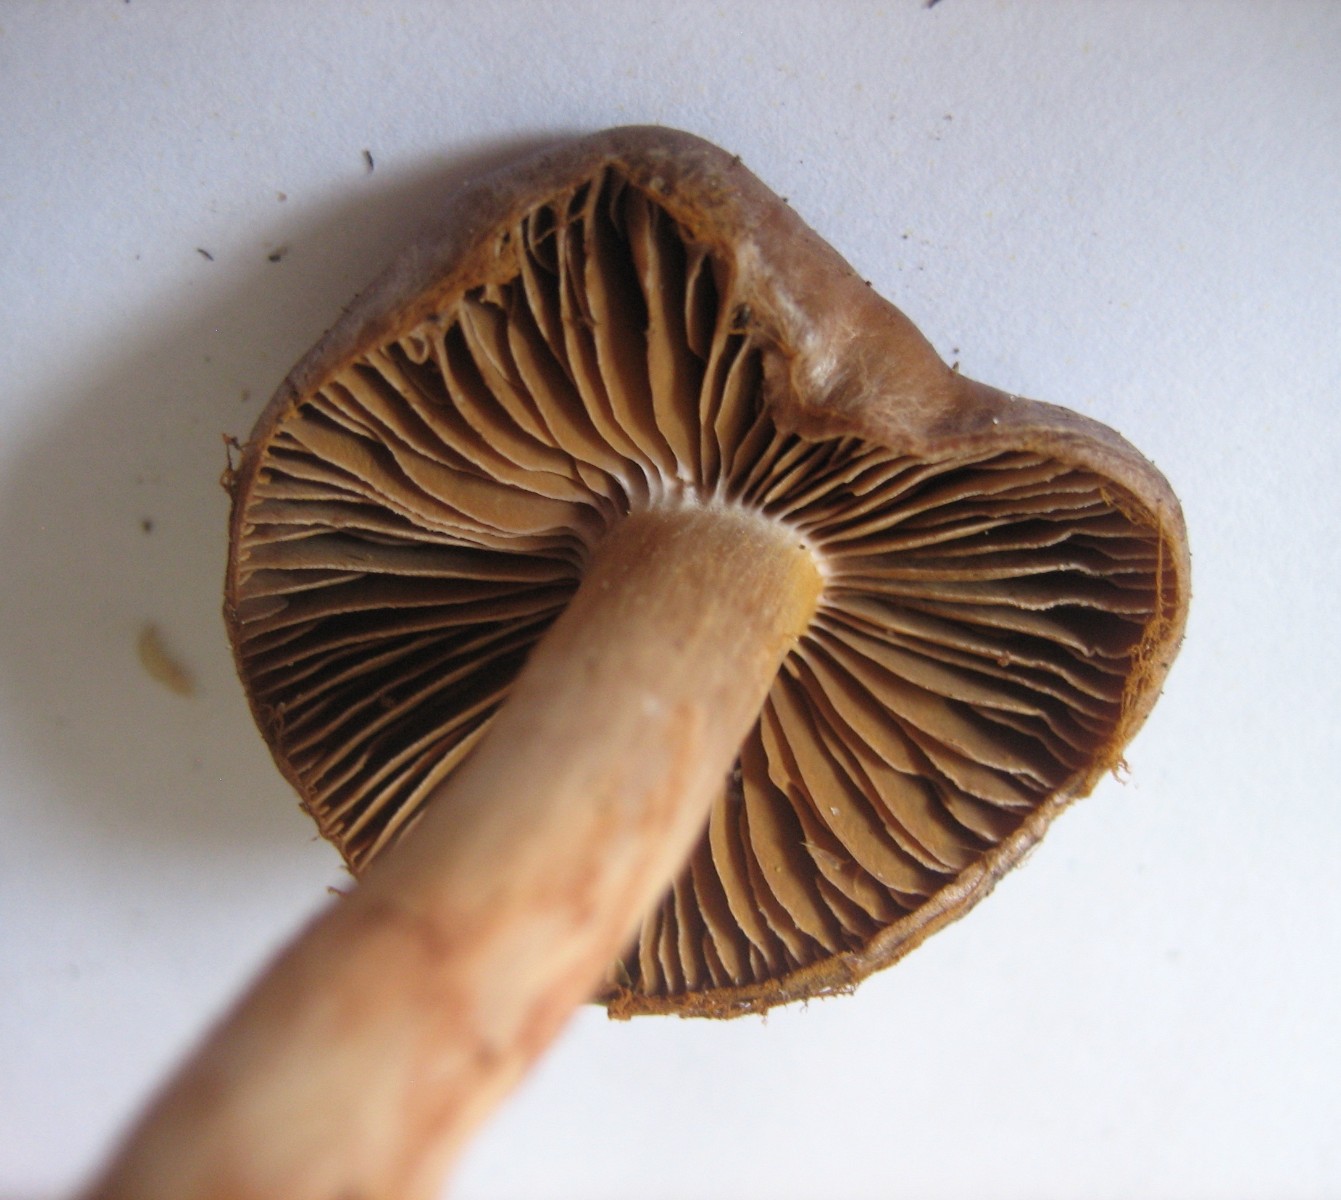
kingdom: Fungi
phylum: Basidiomycota
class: Agaricomycetes
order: Agaricales
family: Cortinariaceae
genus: Cortinarius
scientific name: Cortinarius
